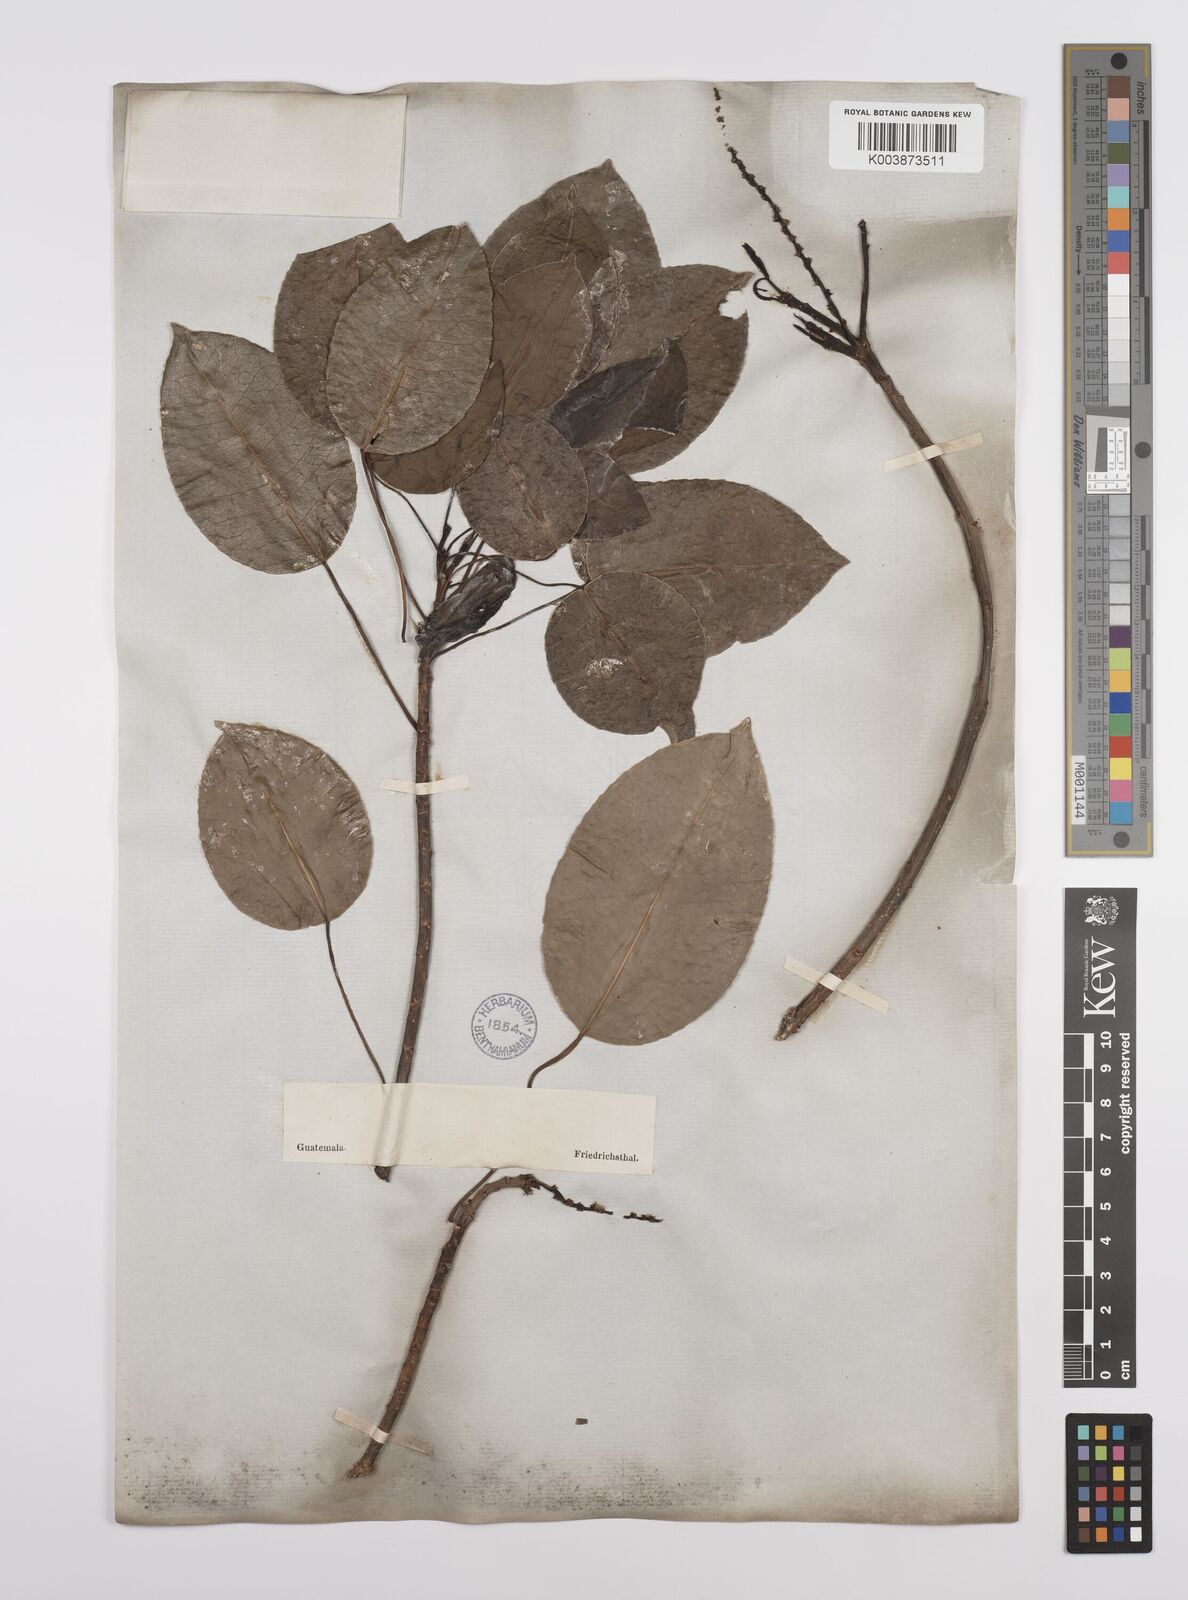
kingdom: Plantae
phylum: Tracheophyta
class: Magnoliopsida
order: Malpighiales
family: Euphorbiaceae
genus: Hippomane
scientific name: Hippomane mancinella
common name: Manchineel
